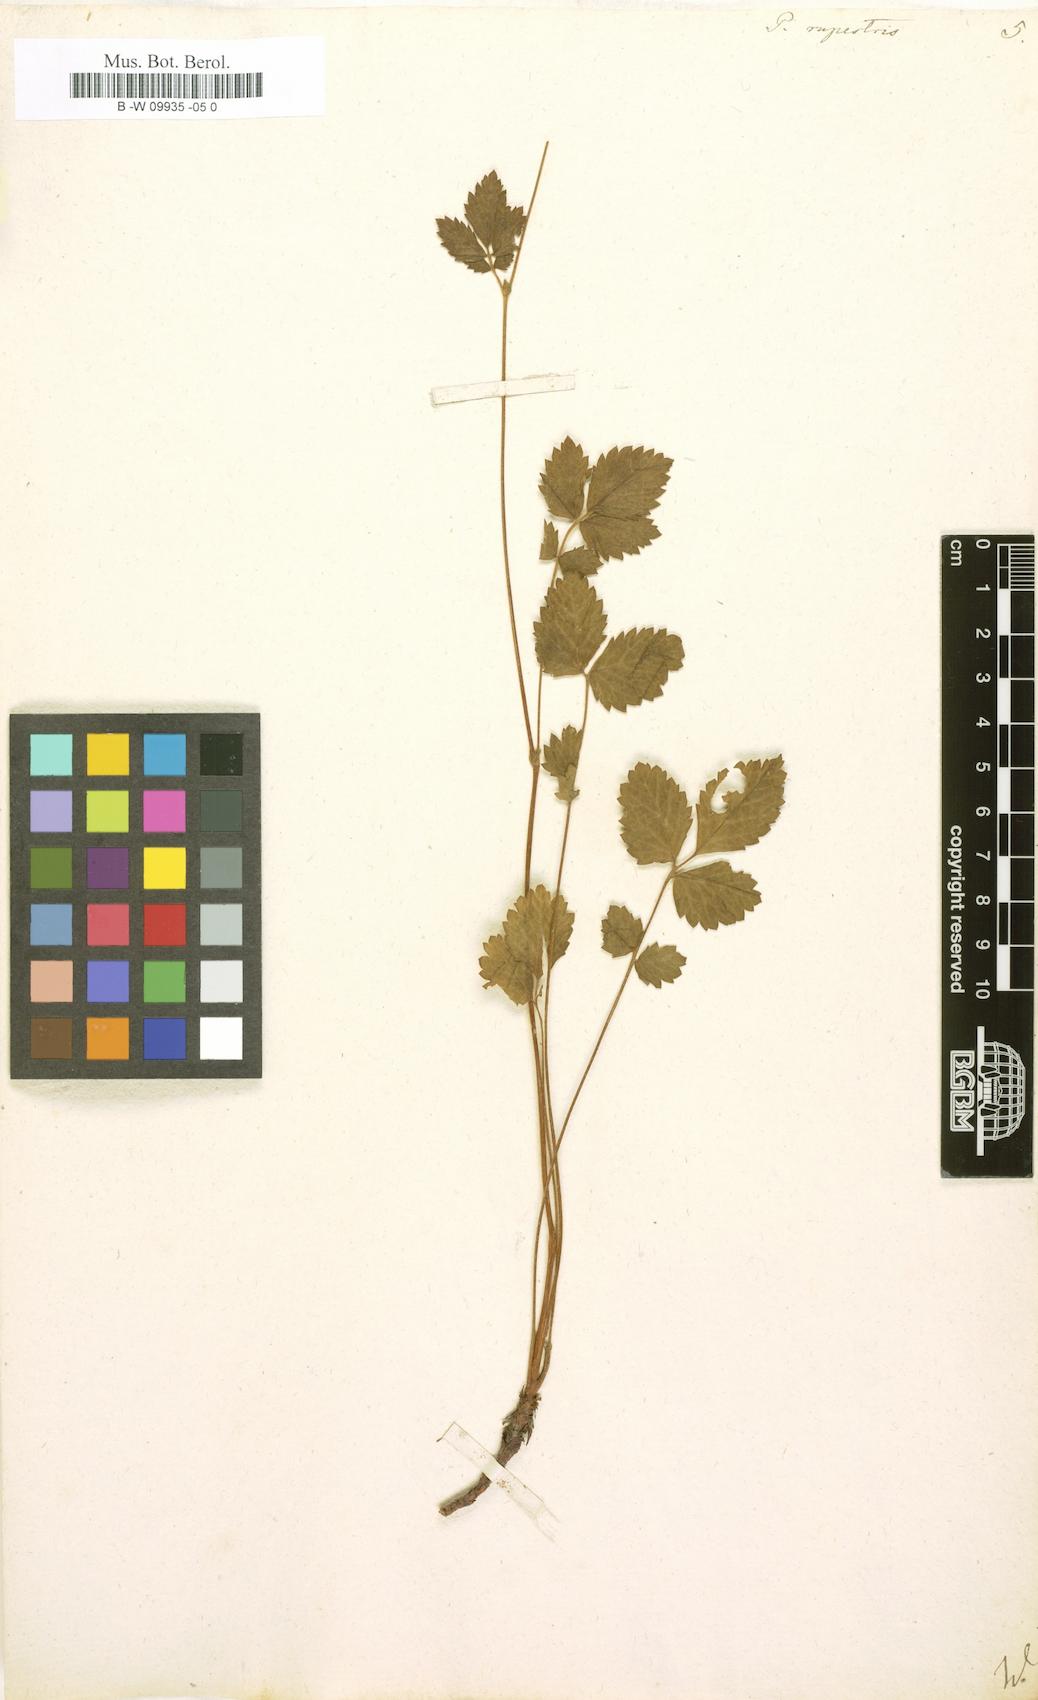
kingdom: Plantae
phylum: Tracheophyta
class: Magnoliopsida
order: Rosales
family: Rosaceae
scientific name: Rosaceae
